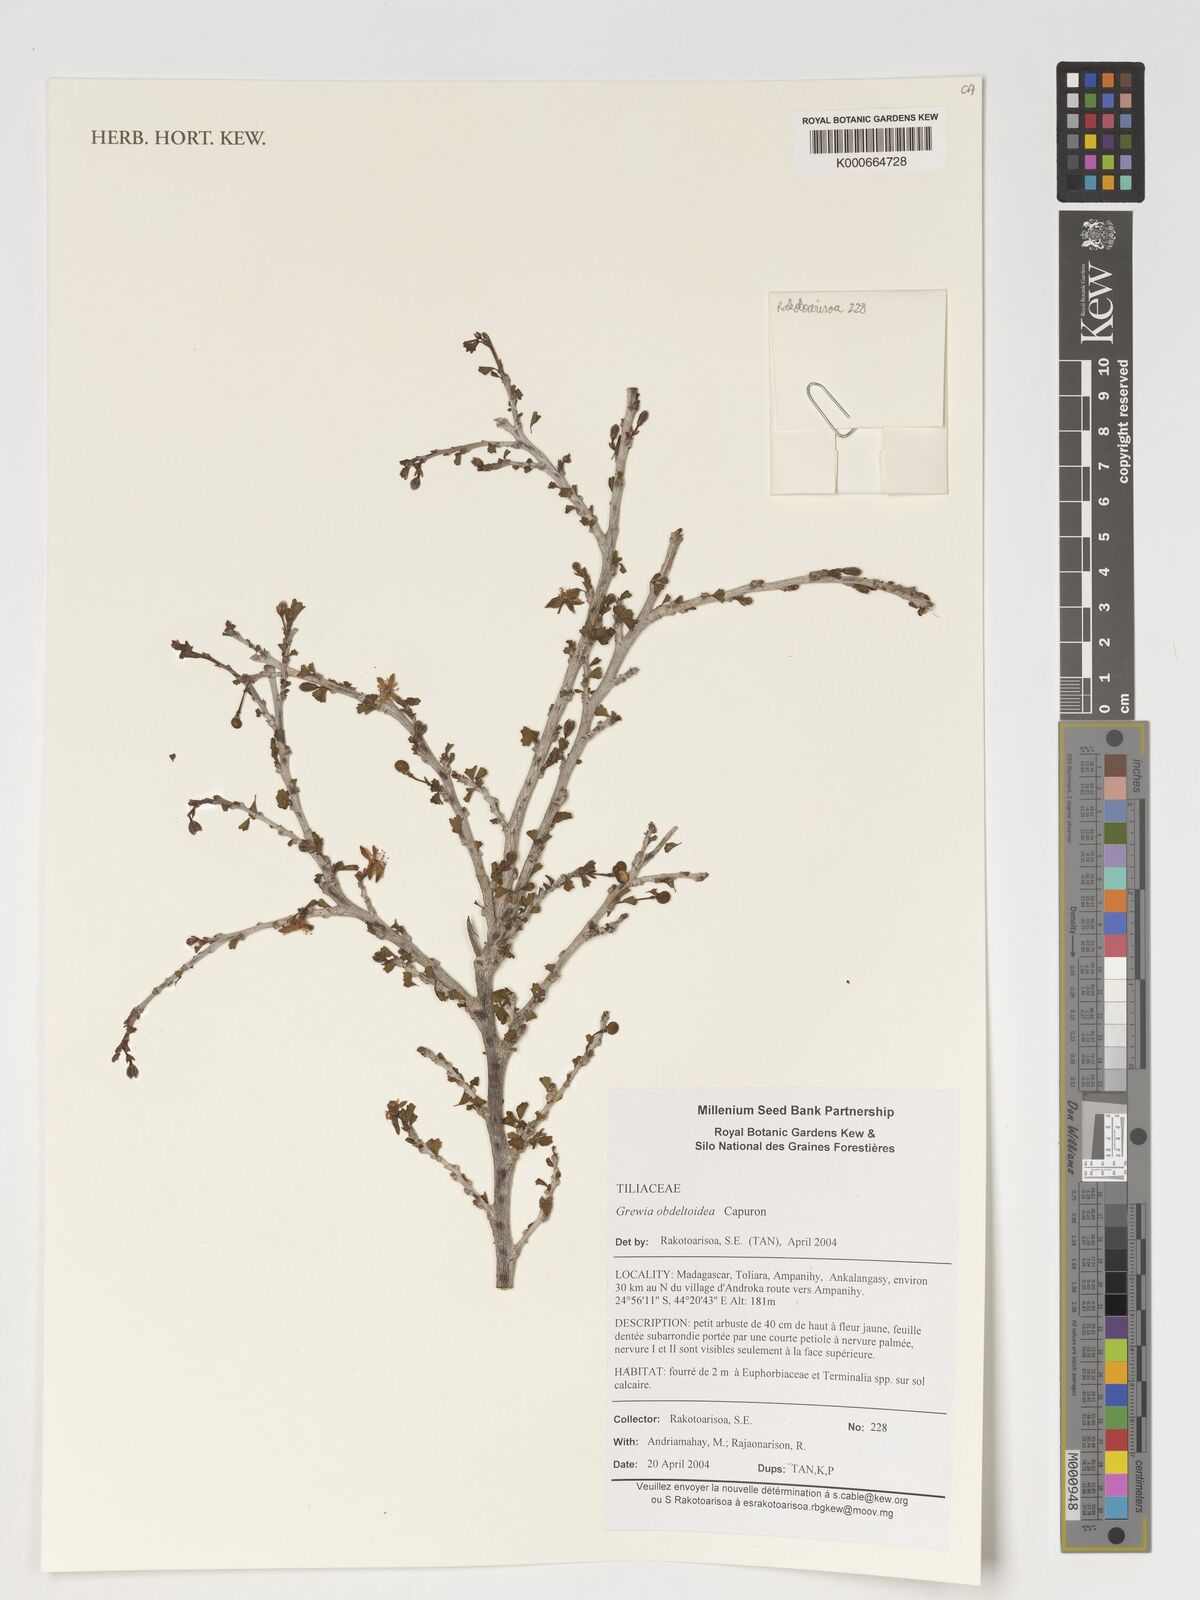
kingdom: Plantae
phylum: Tracheophyta
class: Magnoliopsida
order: Malvales
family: Malvaceae
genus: Grewia
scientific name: Grewia
